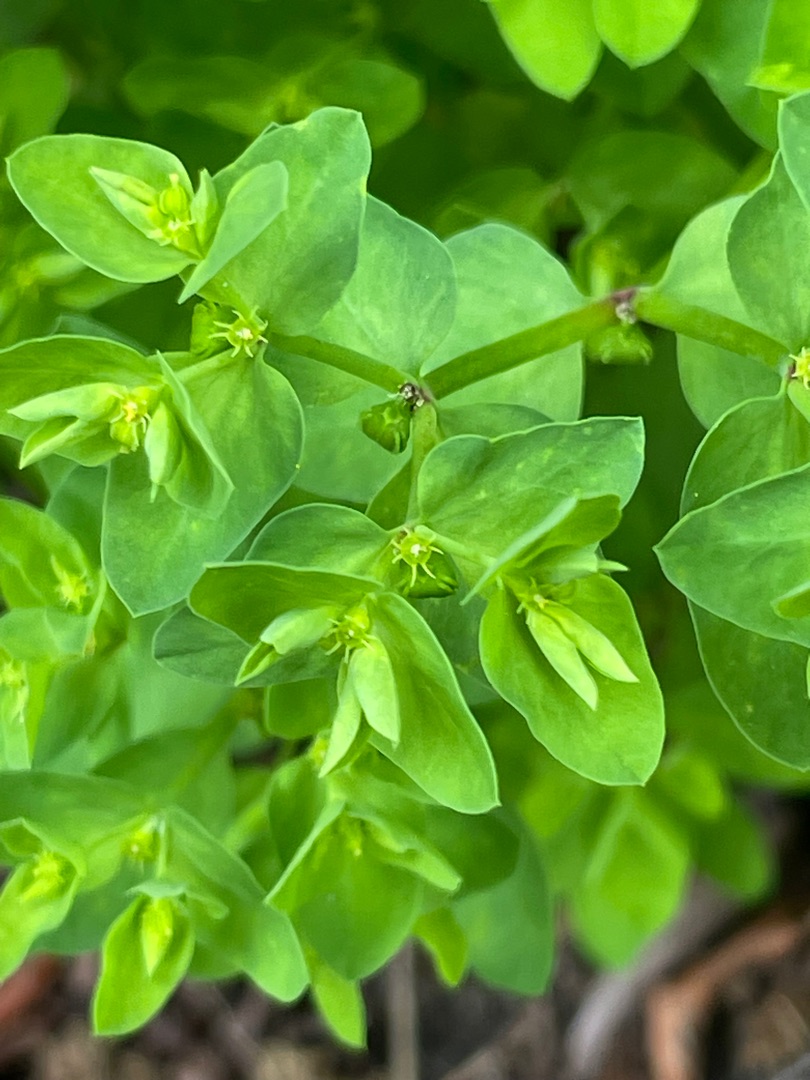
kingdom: Plantae
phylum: Tracheophyta
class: Magnoliopsida
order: Malpighiales
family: Euphorbiaceae
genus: Euphorbia
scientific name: Euphorbia peplus
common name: Gaffel-vortemælk
